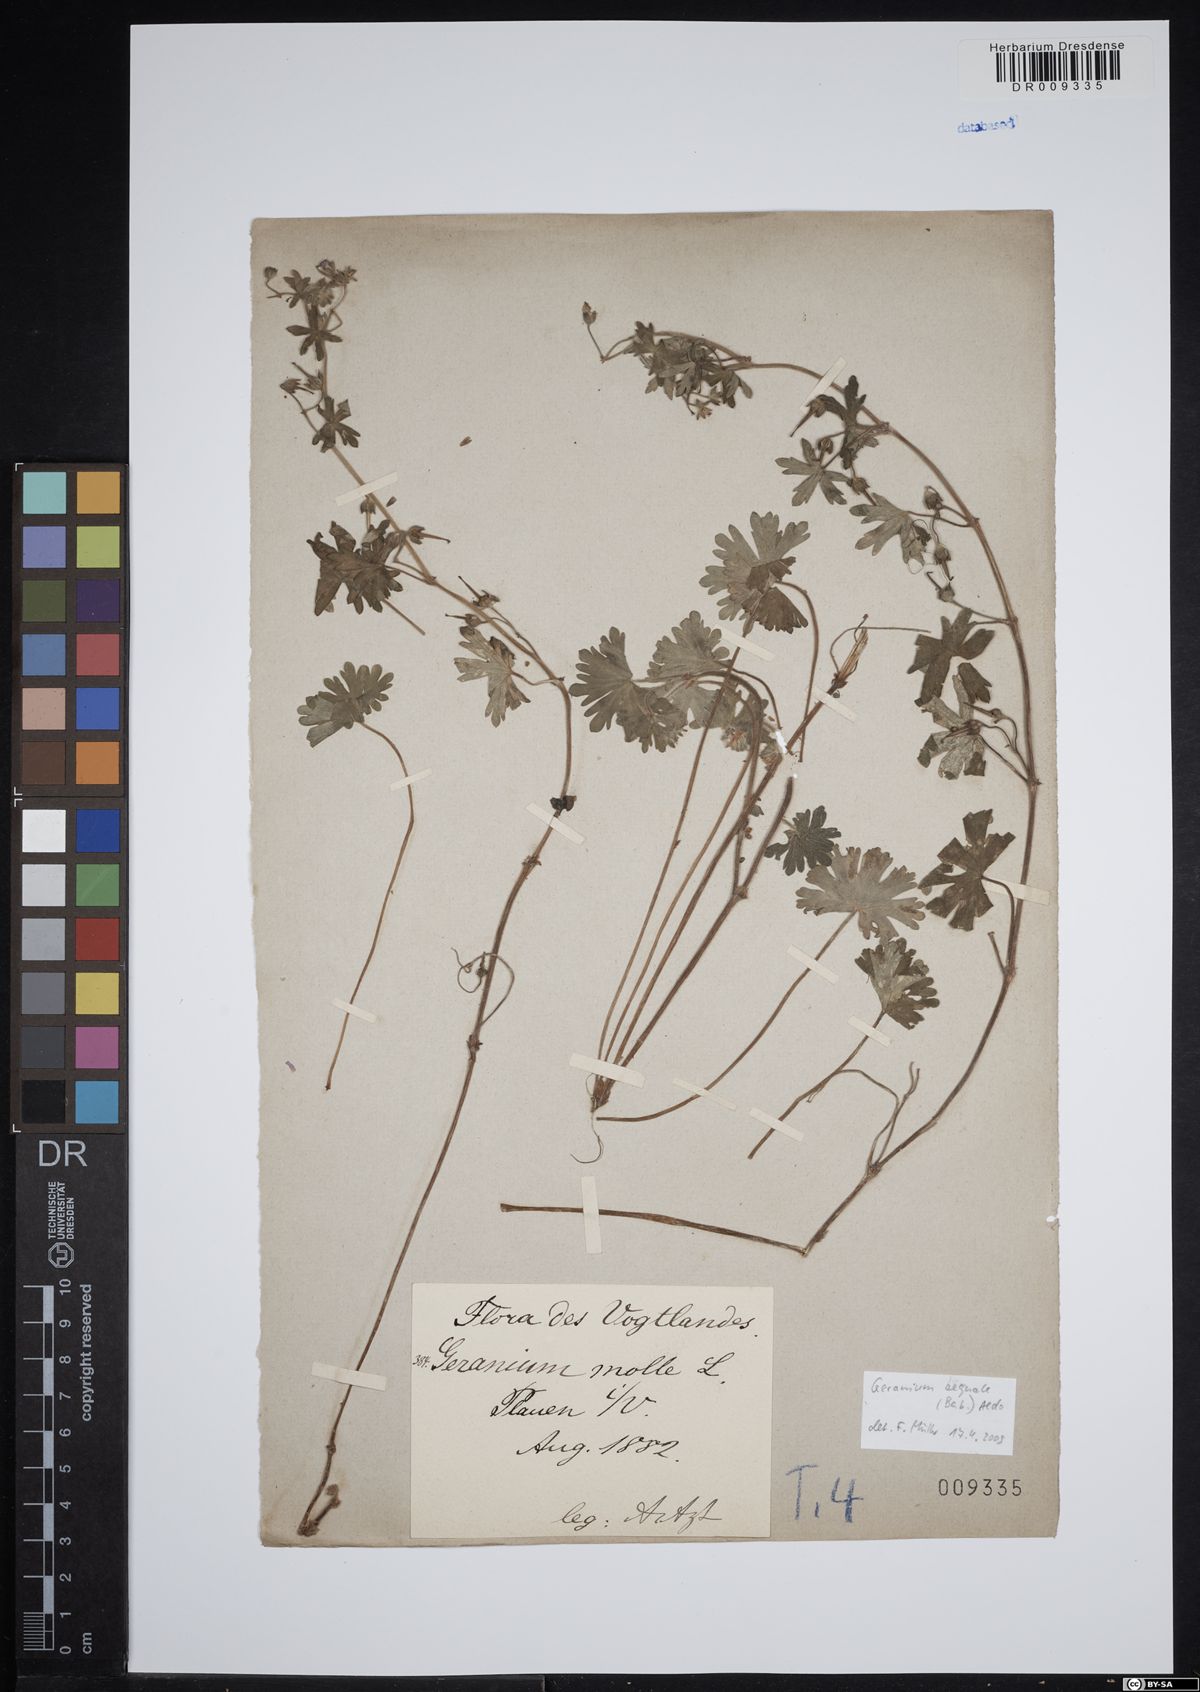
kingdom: Plantae
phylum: Tracheophyta
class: Magnoliopsida
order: Geraniales
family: Geraniaceae
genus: Geranium
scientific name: Geranium molle
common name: Dove's-foot crane's-bill
